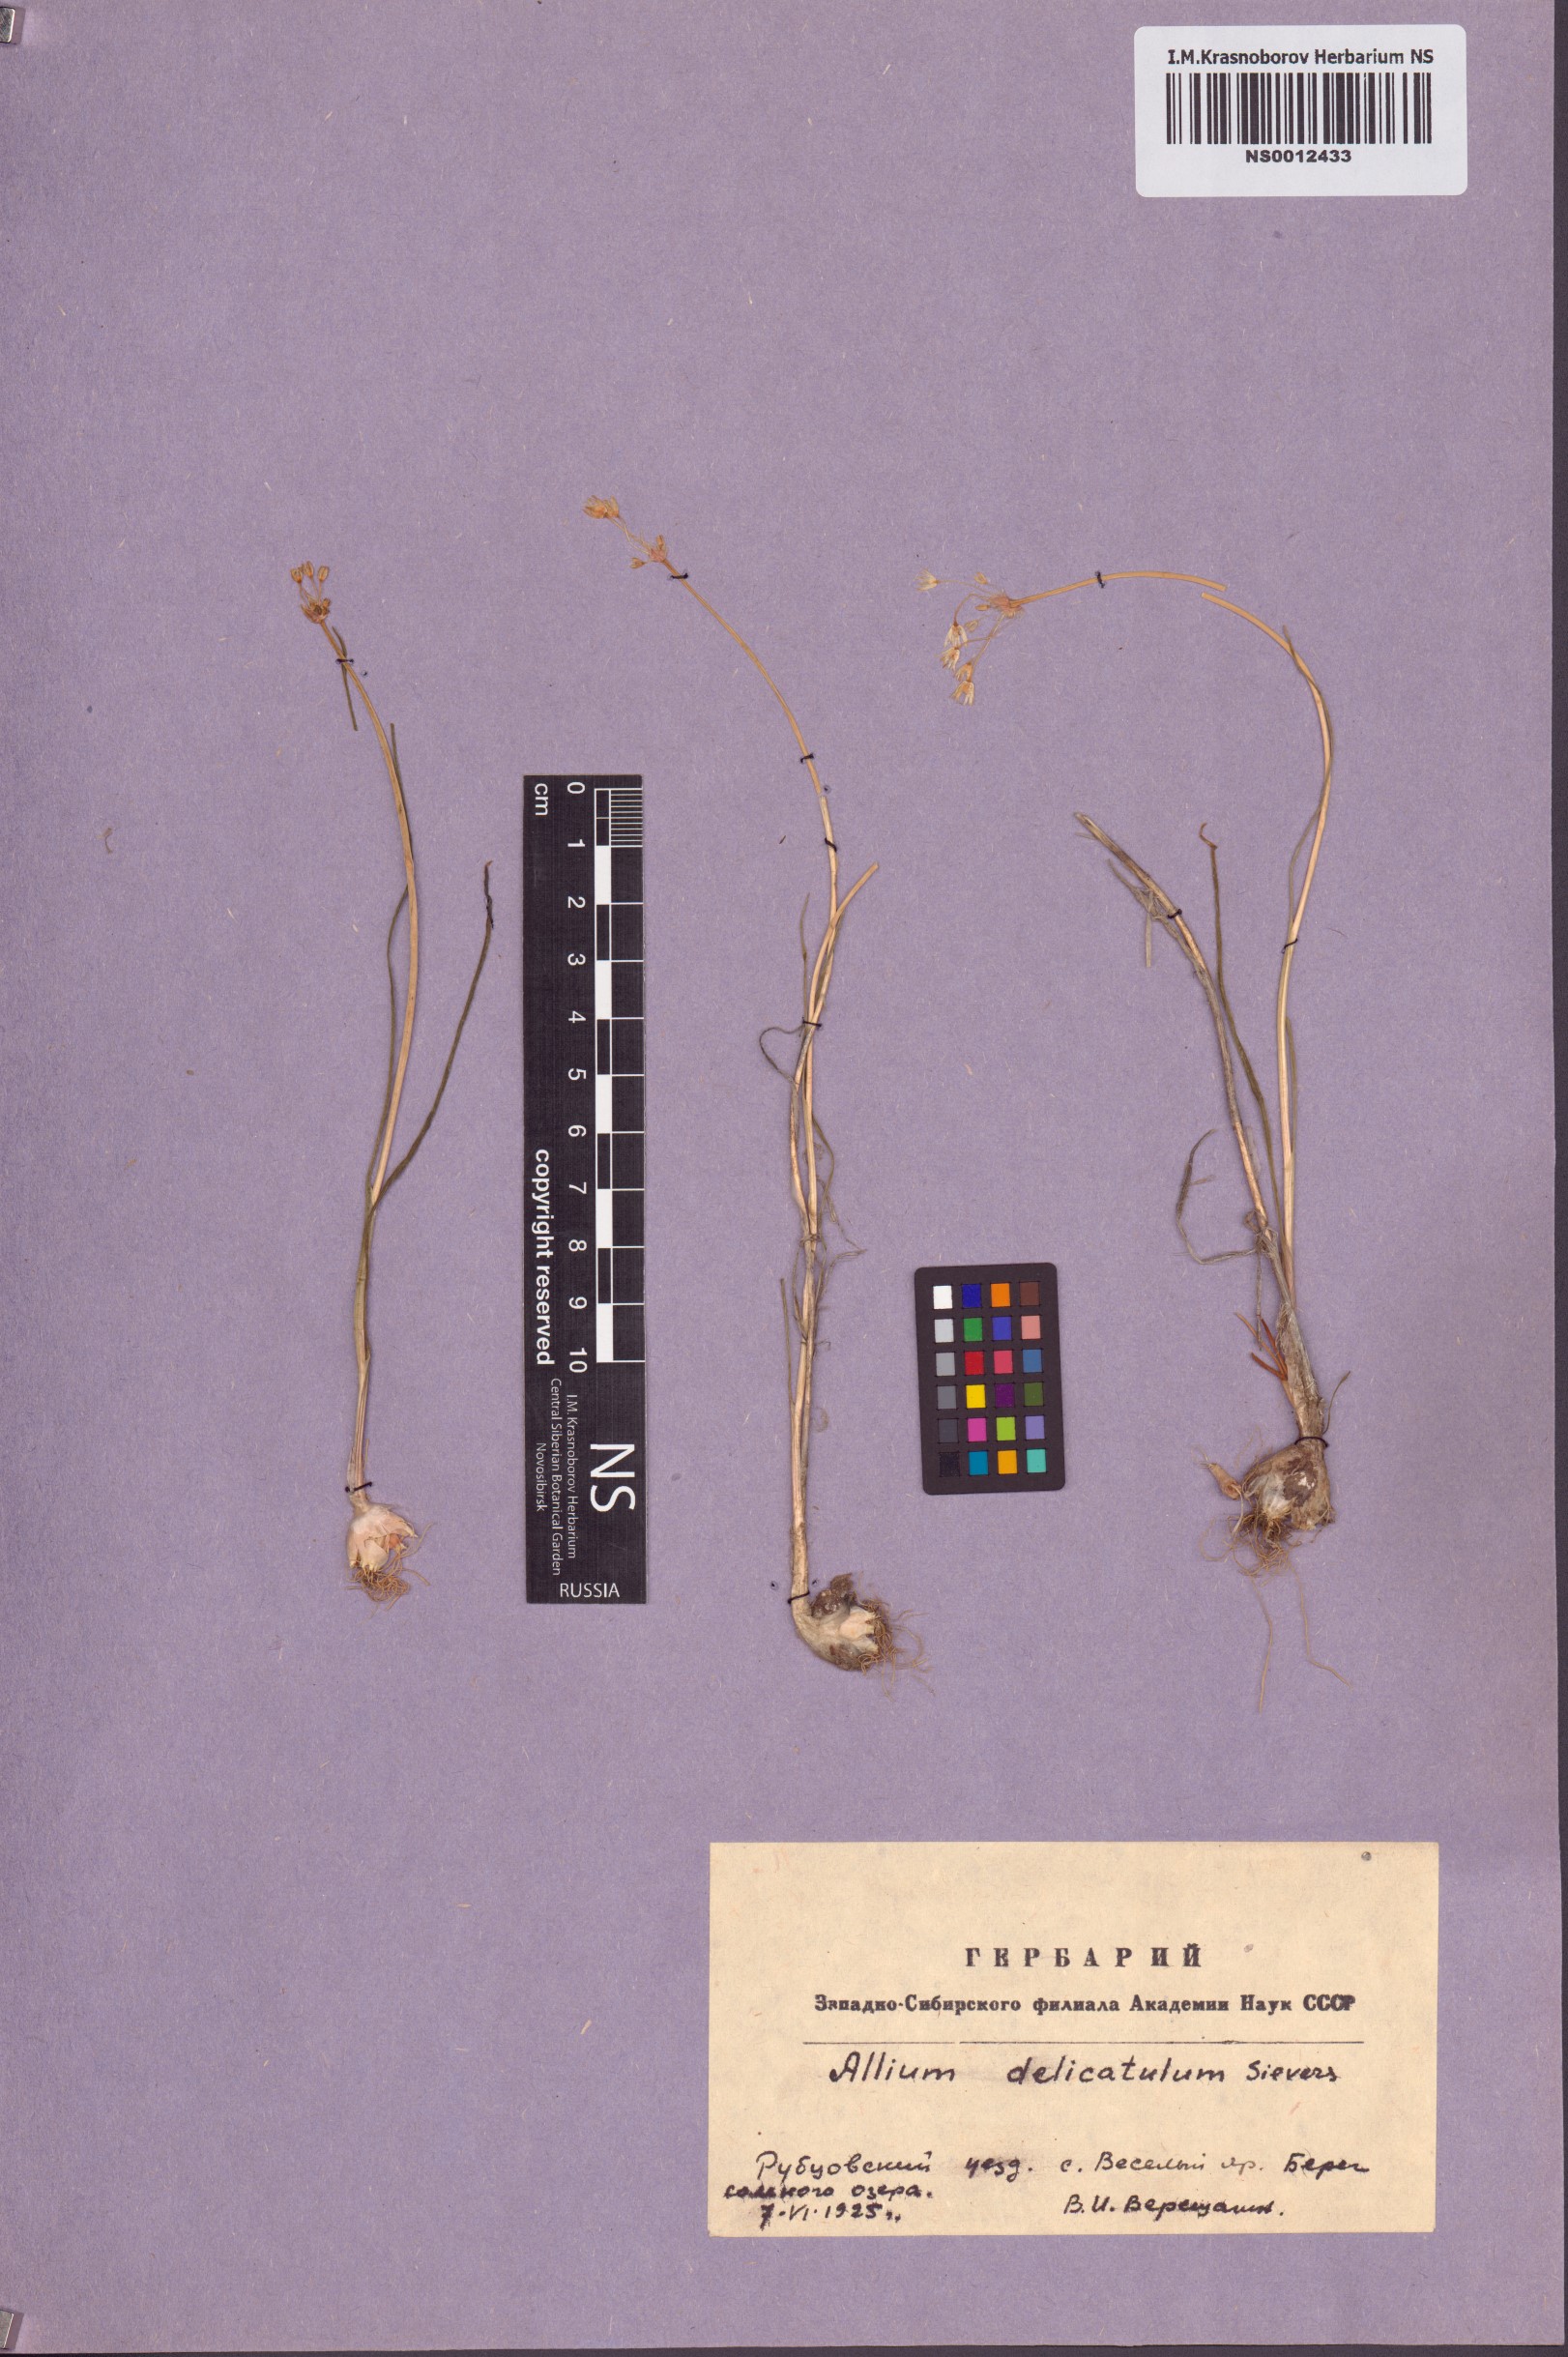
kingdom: Plantae
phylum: Tracheophyta
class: Liliopsida
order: Asparagales
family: Amaryllidaceae
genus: Allium
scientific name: Allium delicatulum
